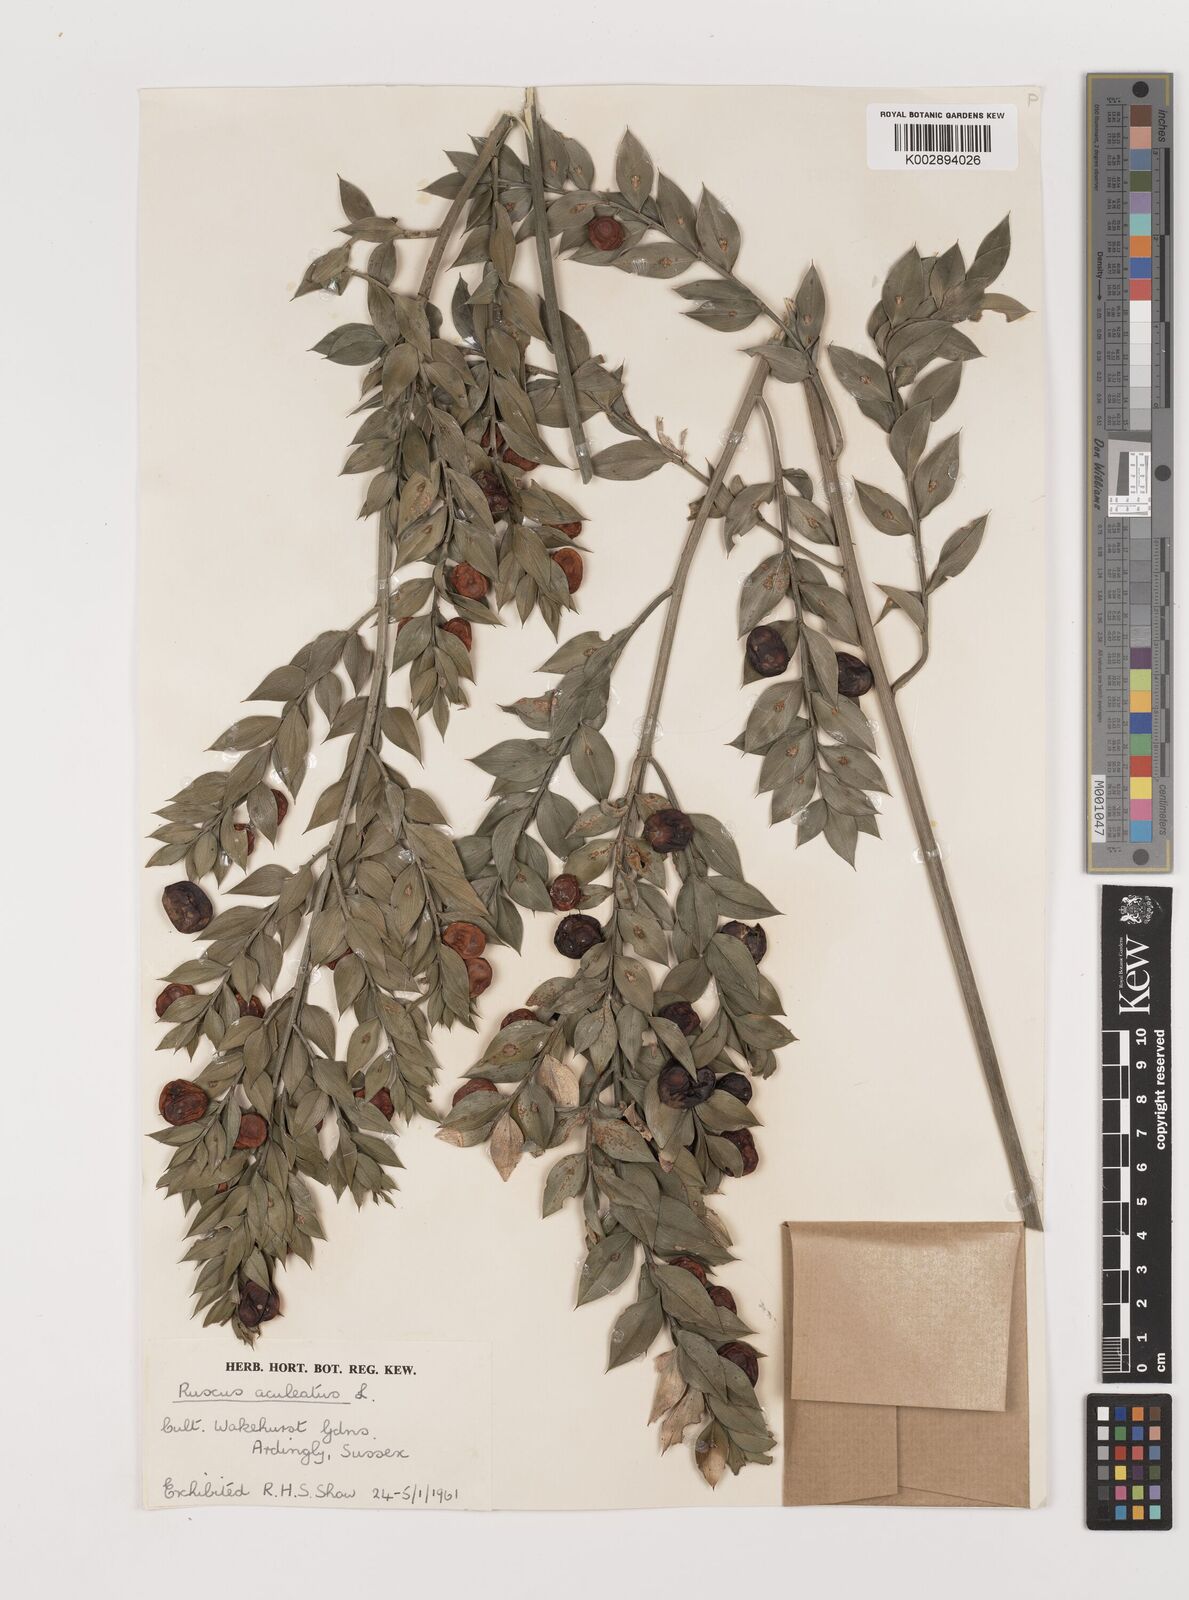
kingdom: Plantae
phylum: Tracheophyta
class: Liliopsida
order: Asparagales
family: Asparagaceae
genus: Ruscus
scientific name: Ruscus aculeatus
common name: Butcher's-broom
